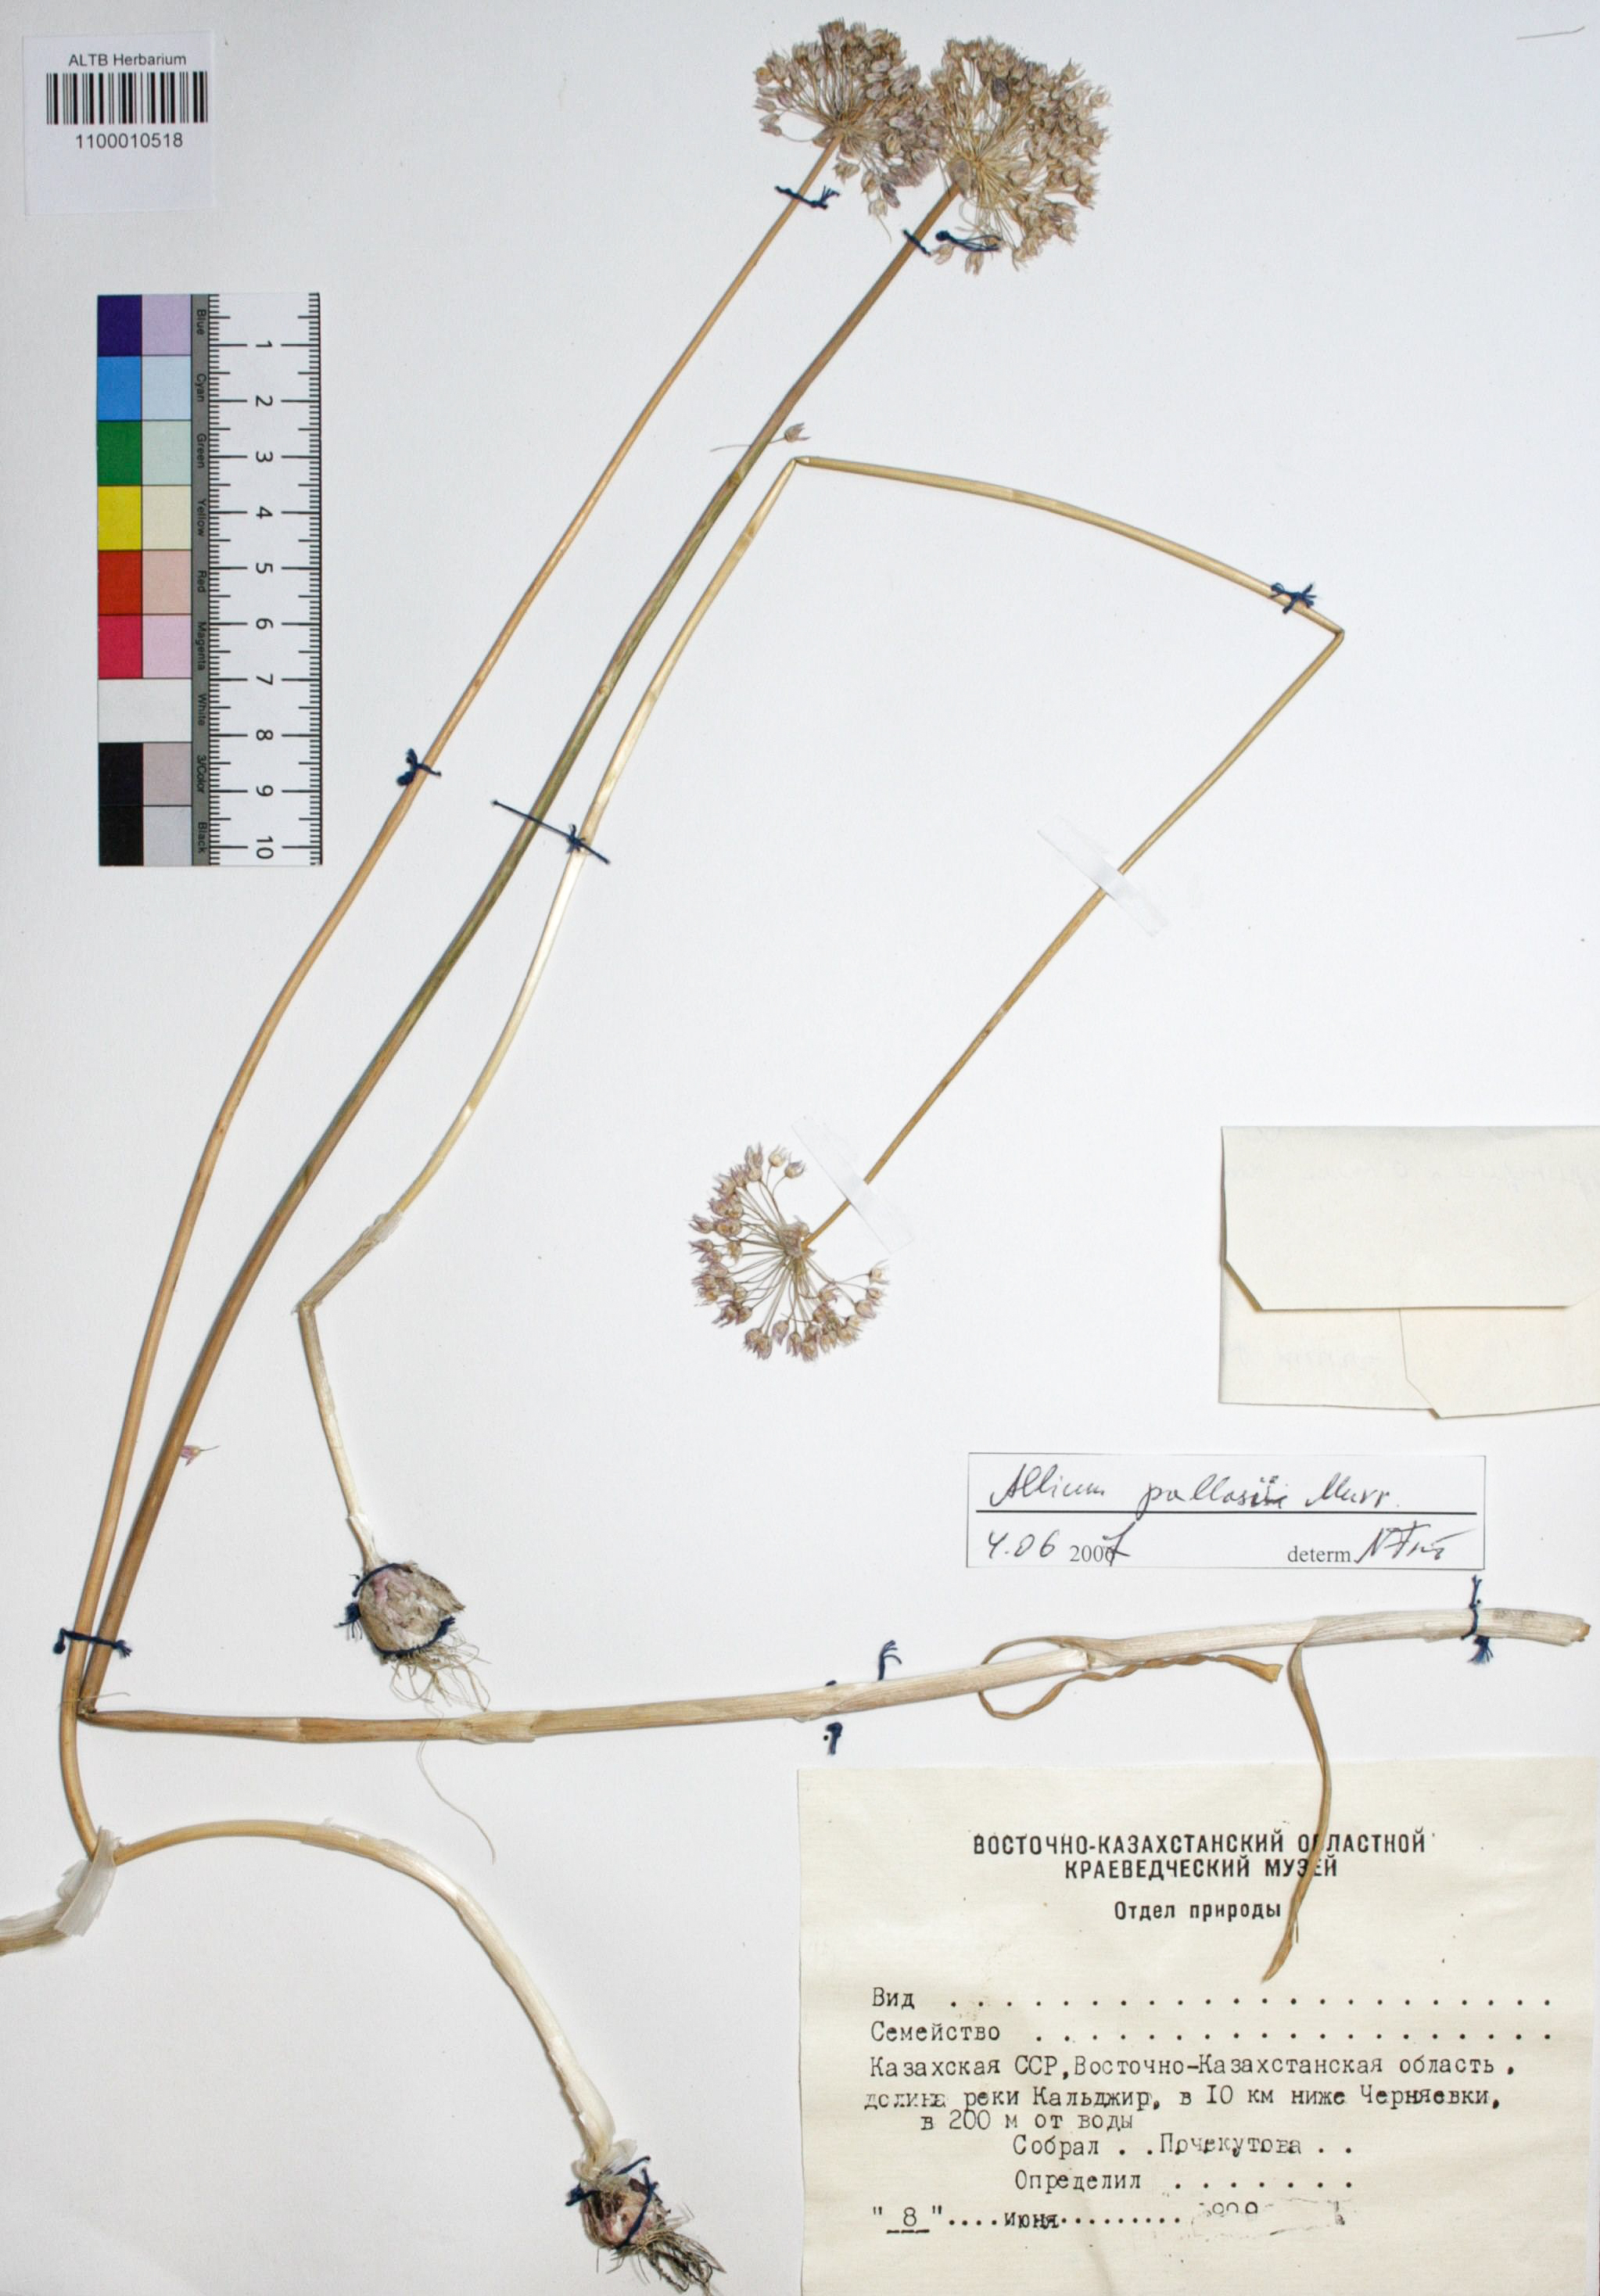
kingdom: Plantae
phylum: Tracheophyta
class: Liliopsida
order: Asparagales
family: Amaryllidaceae
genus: Allium
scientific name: Allium pallasii
